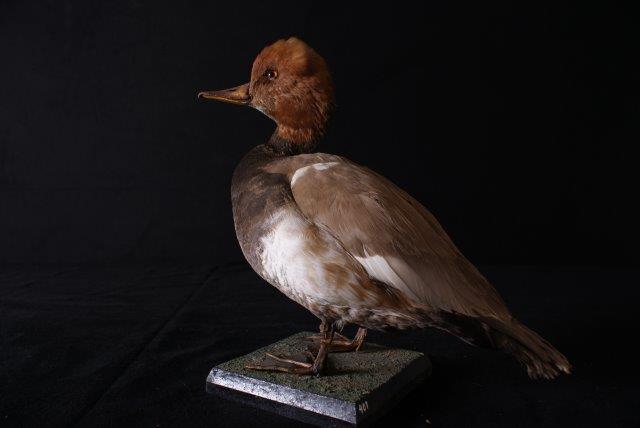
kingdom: Animalia
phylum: Chordata
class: Aves
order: Anseriformes
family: Anatidae
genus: Netta
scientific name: Netta rufina
